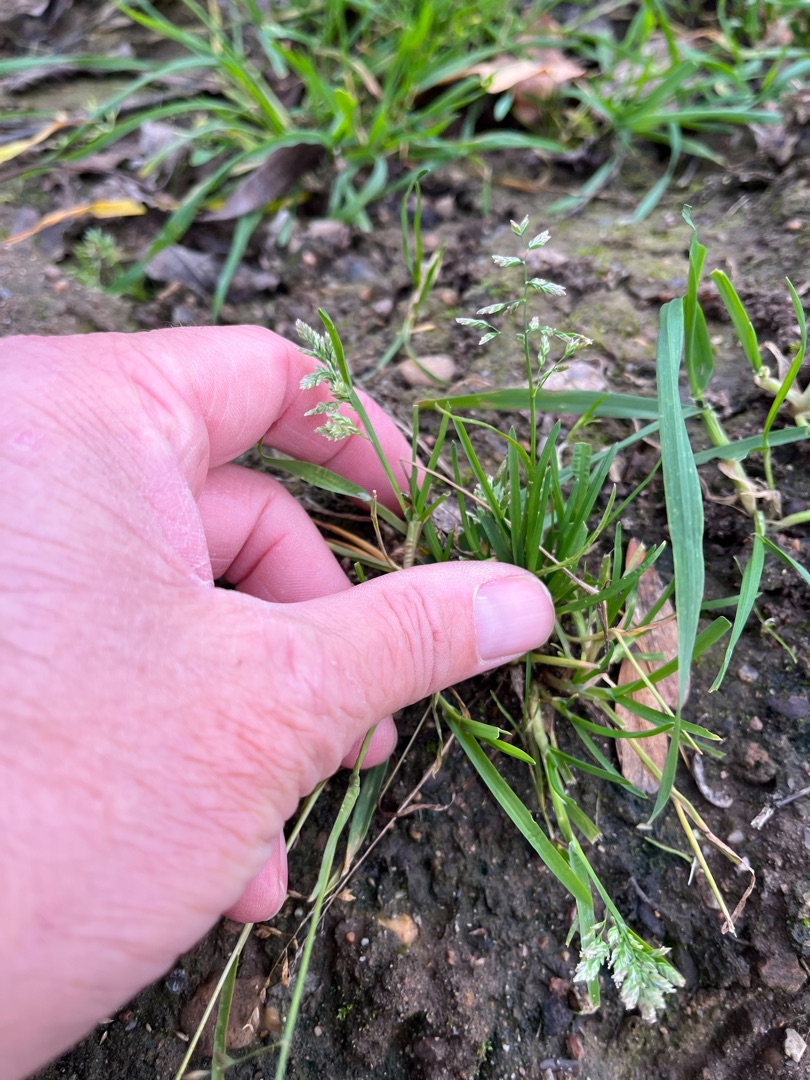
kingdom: Plantae
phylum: Tracheophyta
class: Liliopsida
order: Poales
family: Poaceae
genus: Poa
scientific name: Poa annua
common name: Enårig rapgræs
